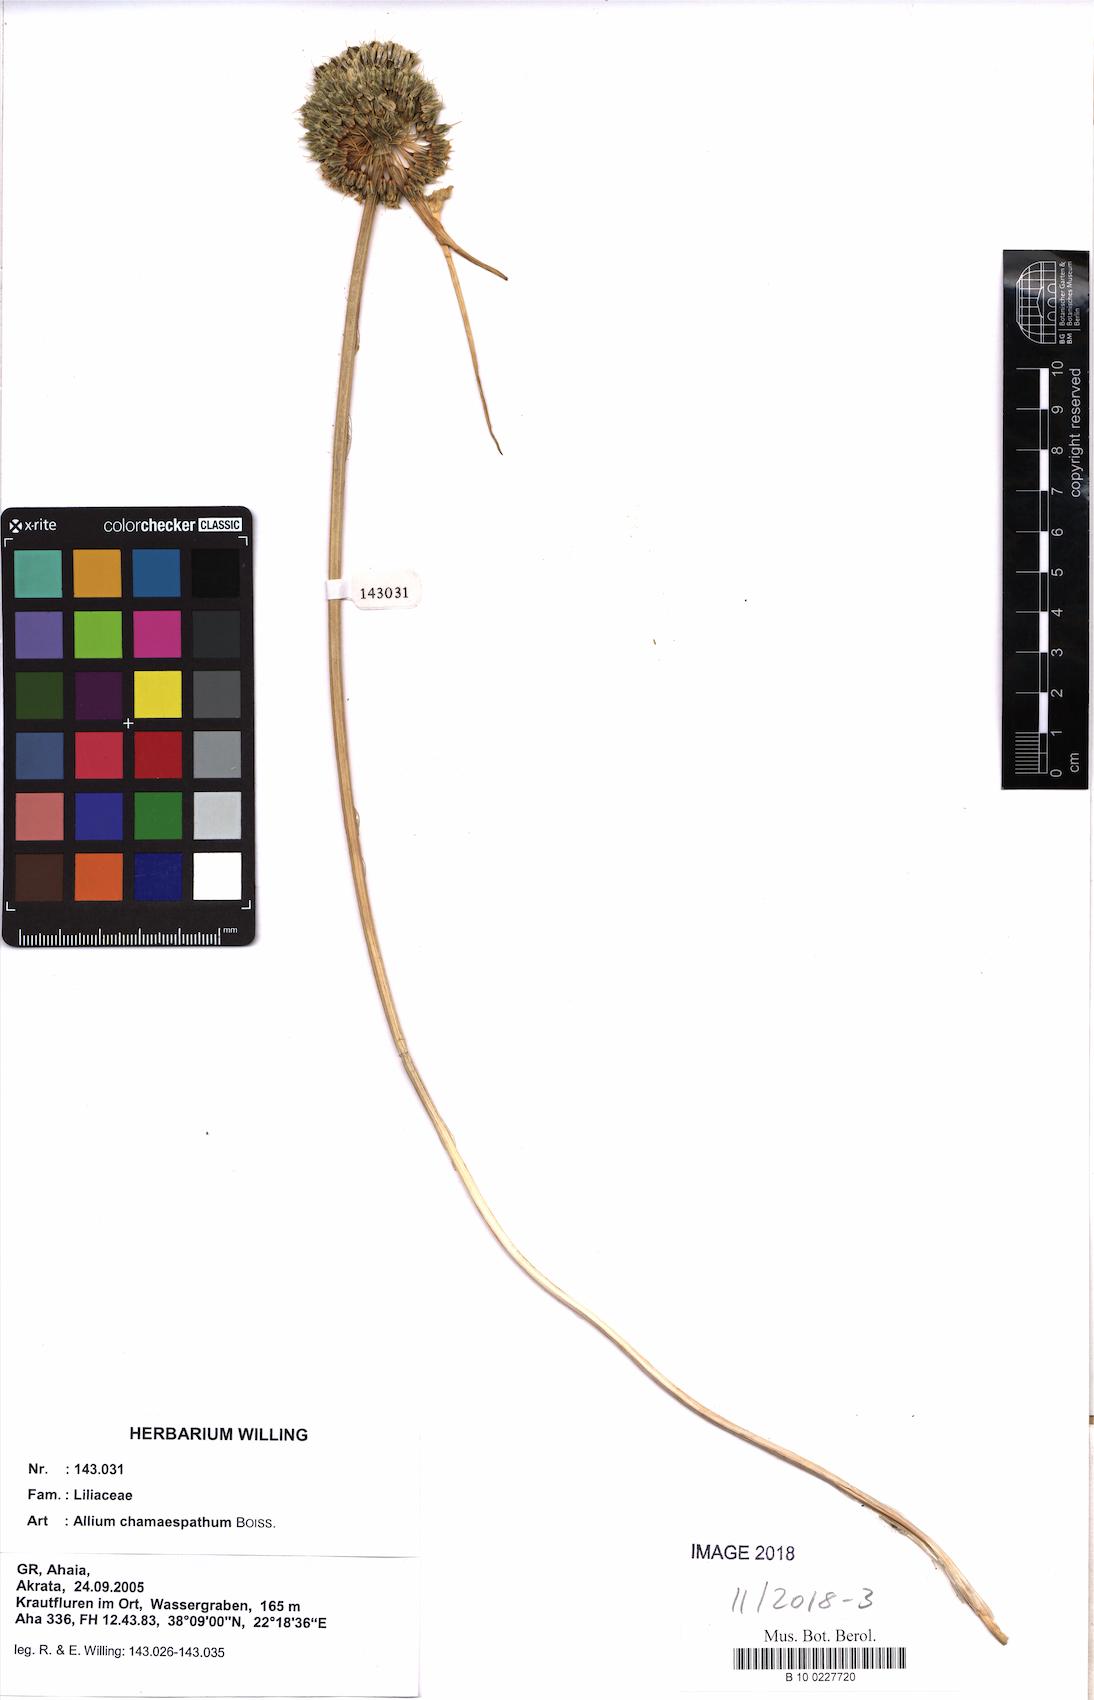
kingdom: Plantae
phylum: Tracheophyta
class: Liliopsida
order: Asparagales
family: Amaryllidaceae
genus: Allium
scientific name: Allium chamaespathum
